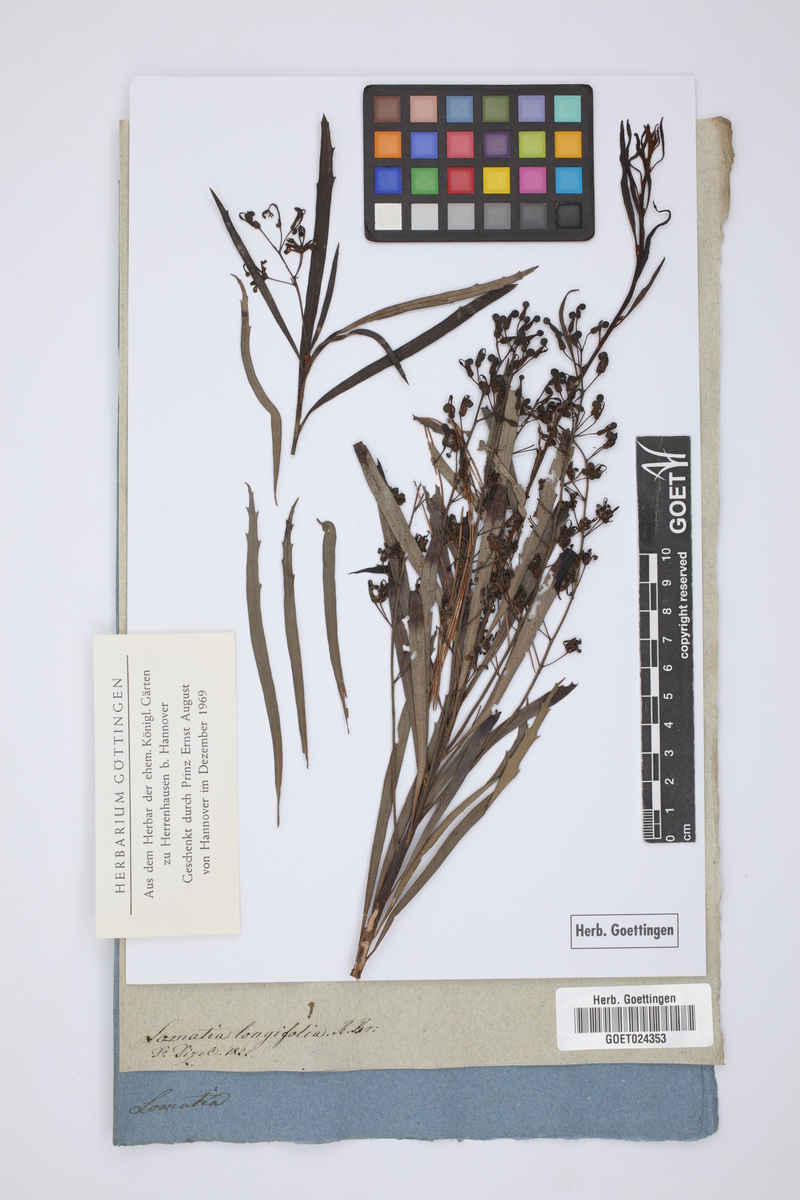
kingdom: Plantae
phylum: Tracheophyta
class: Magnoliopsida
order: Proteales
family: Proteaceae
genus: Lomatia
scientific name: Lomatia myricoides
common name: Longleaf lomatia
